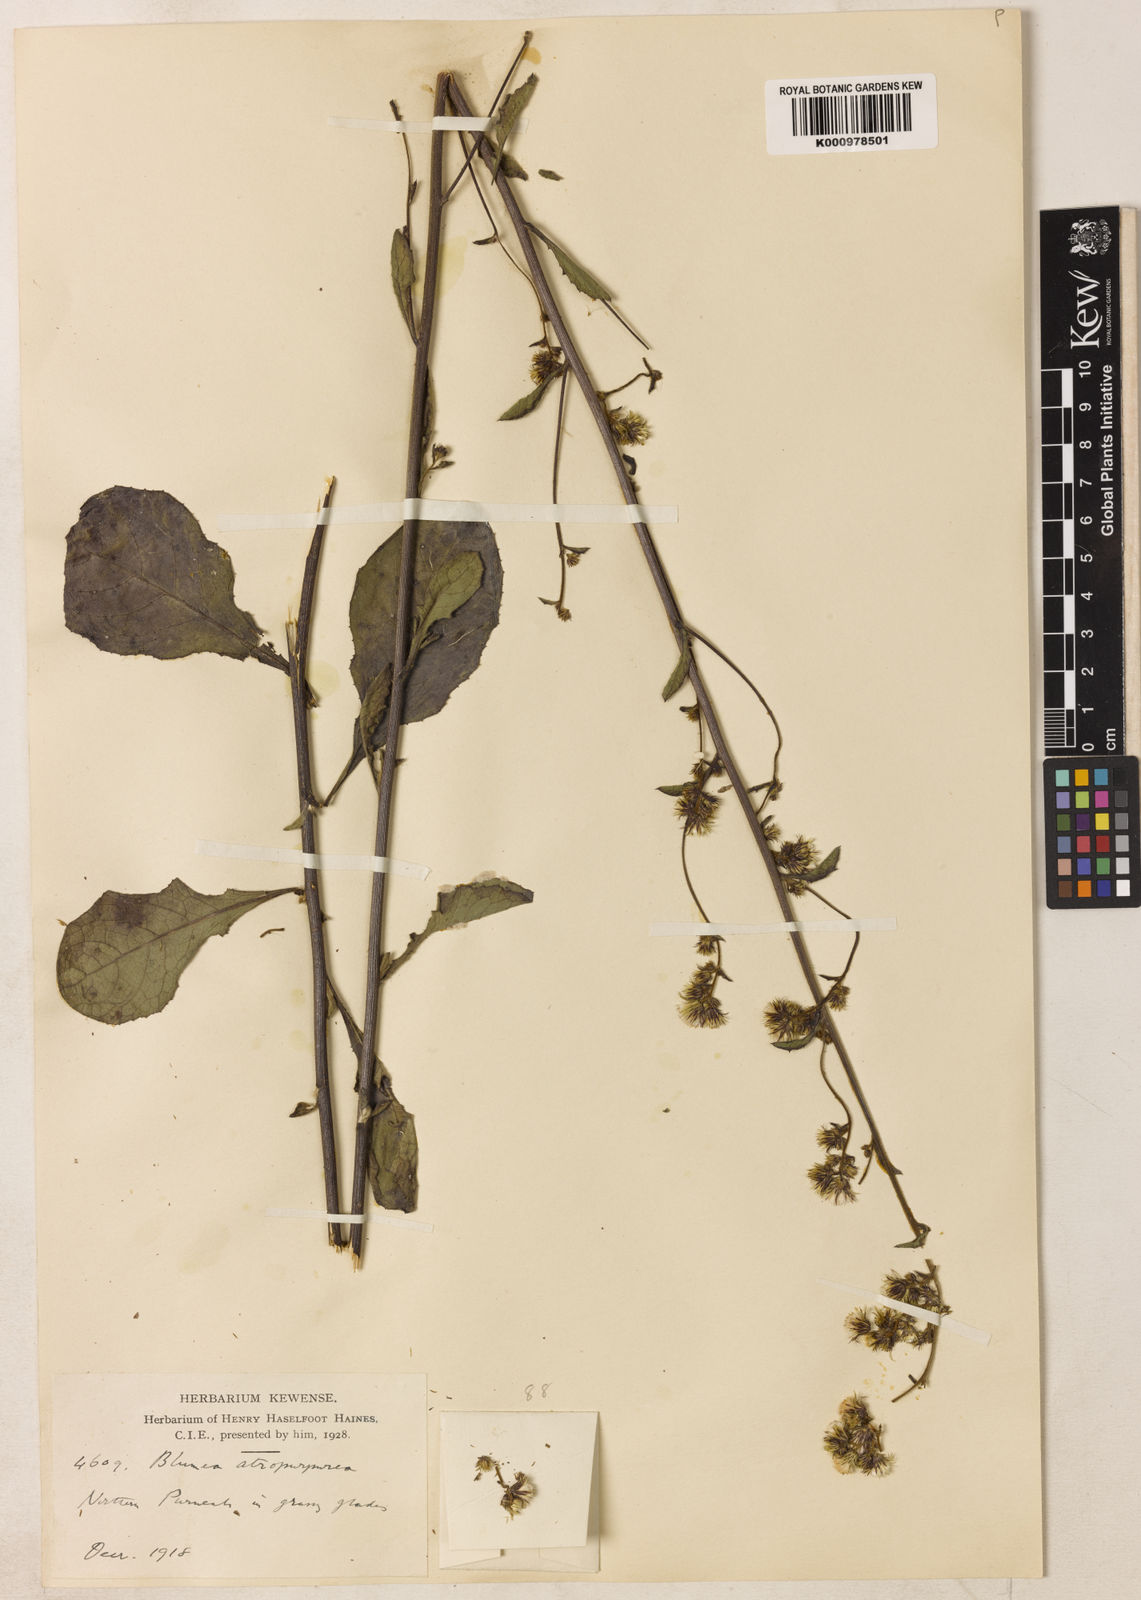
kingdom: Plantae
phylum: Tracheophyta
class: Magnoliopsida
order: Asterales
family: Asteraceae
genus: Blumea
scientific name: Blumea atropurpurea
